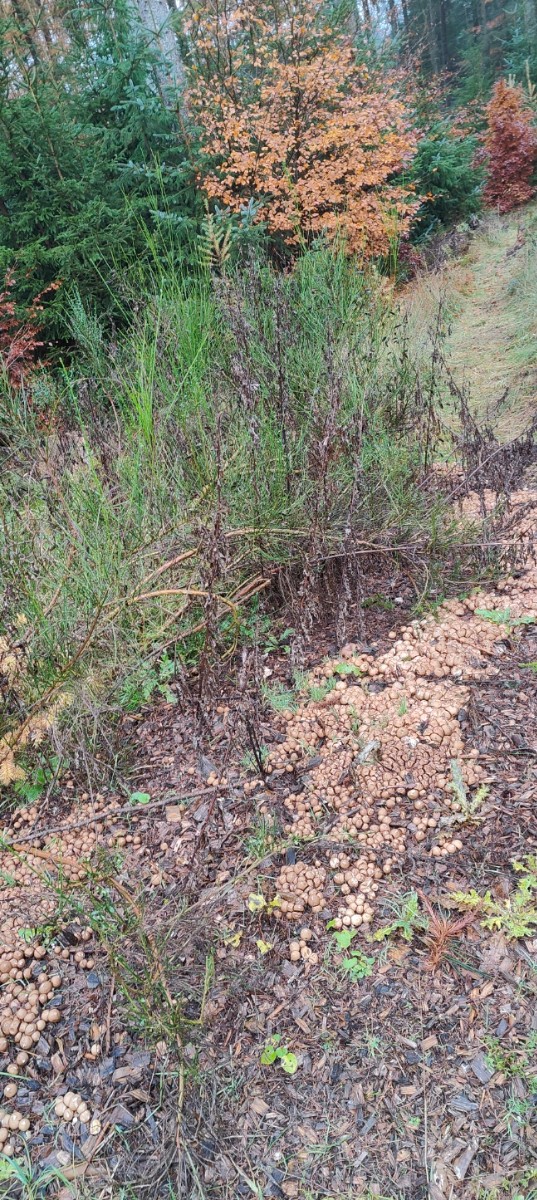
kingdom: Fungi
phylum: Basidiomycota
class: Agaricomycetes
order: Agaricales
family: Lycoperdaceae
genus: Apioperdon
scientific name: Apioperdon pyriforme
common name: pære-støvbold
